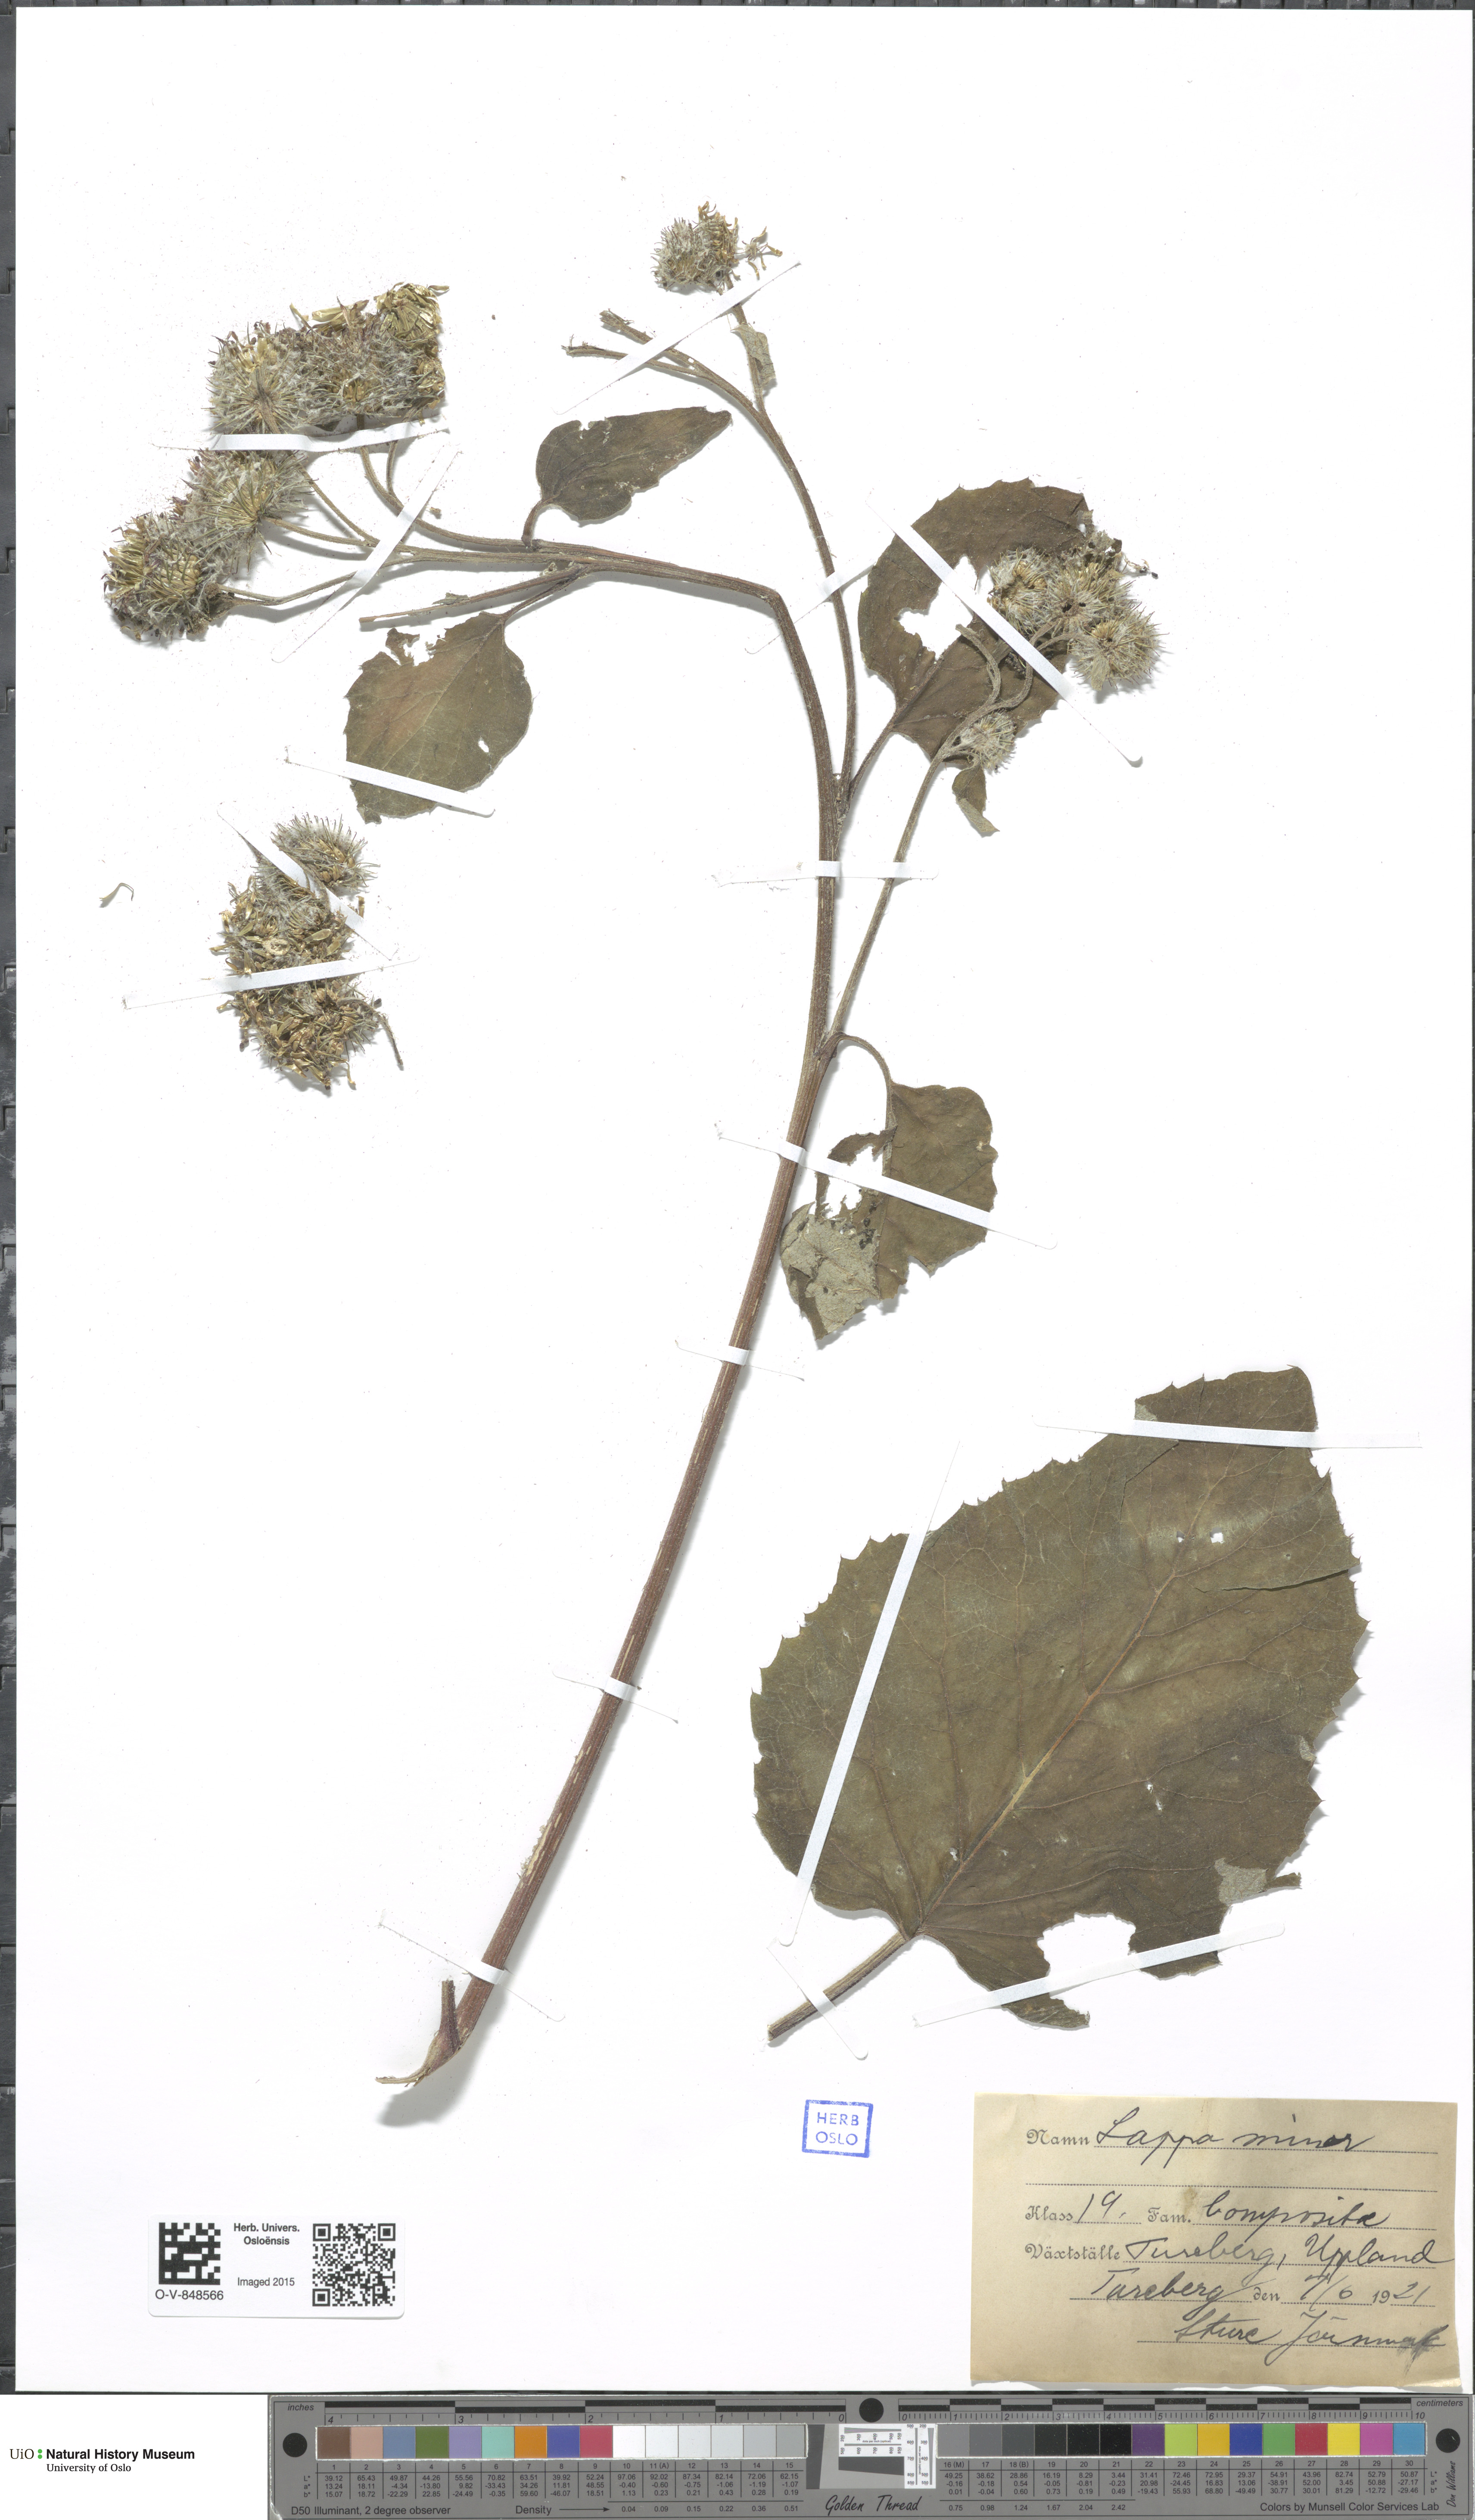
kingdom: Plantae
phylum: Tracheophyta
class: Magnoliopsida
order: Asterales
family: Asteraceae
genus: Arctium
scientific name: Arctium minus
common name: Lesser burdock
